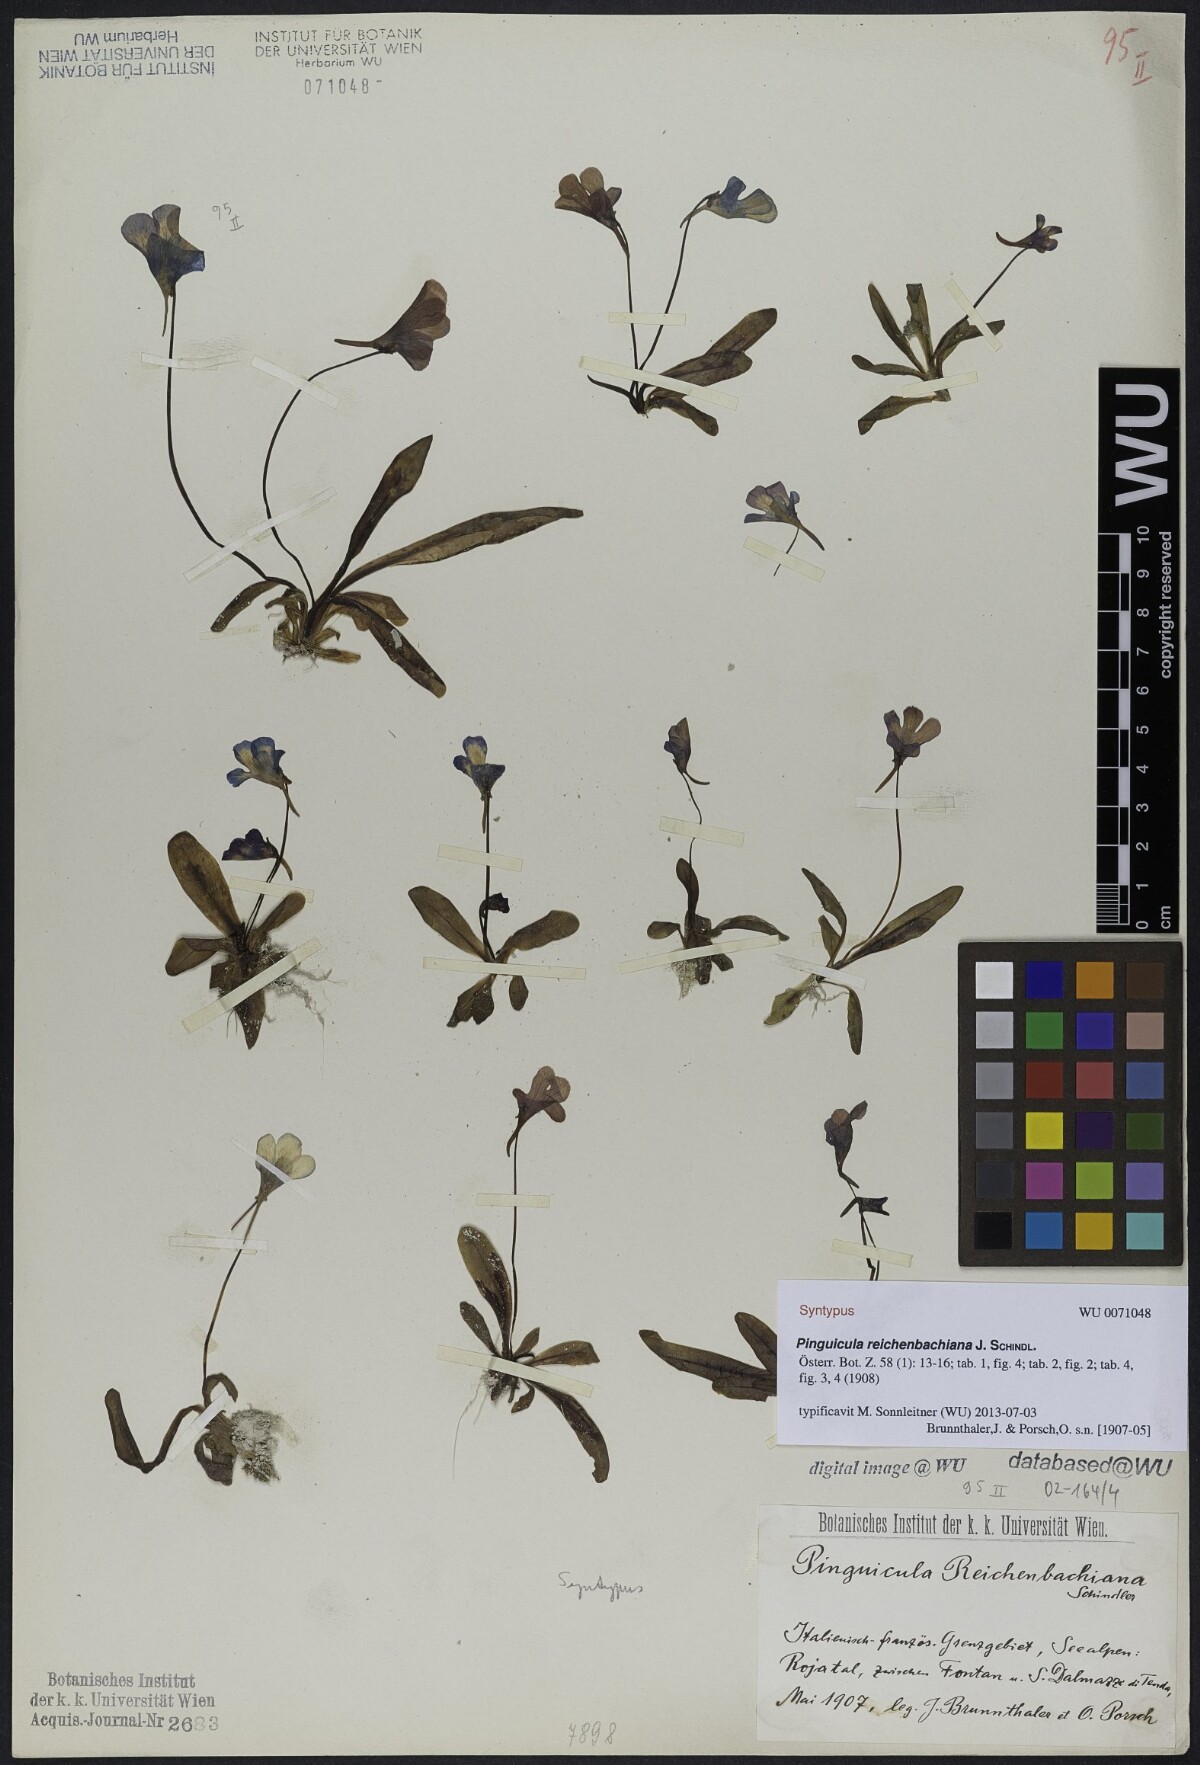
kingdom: Plantae
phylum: Tracheophyta
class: Magnoliopsida
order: Lamiales
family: Lentibulariaceae
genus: Pinguicula
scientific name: Pinguicula longifolia
